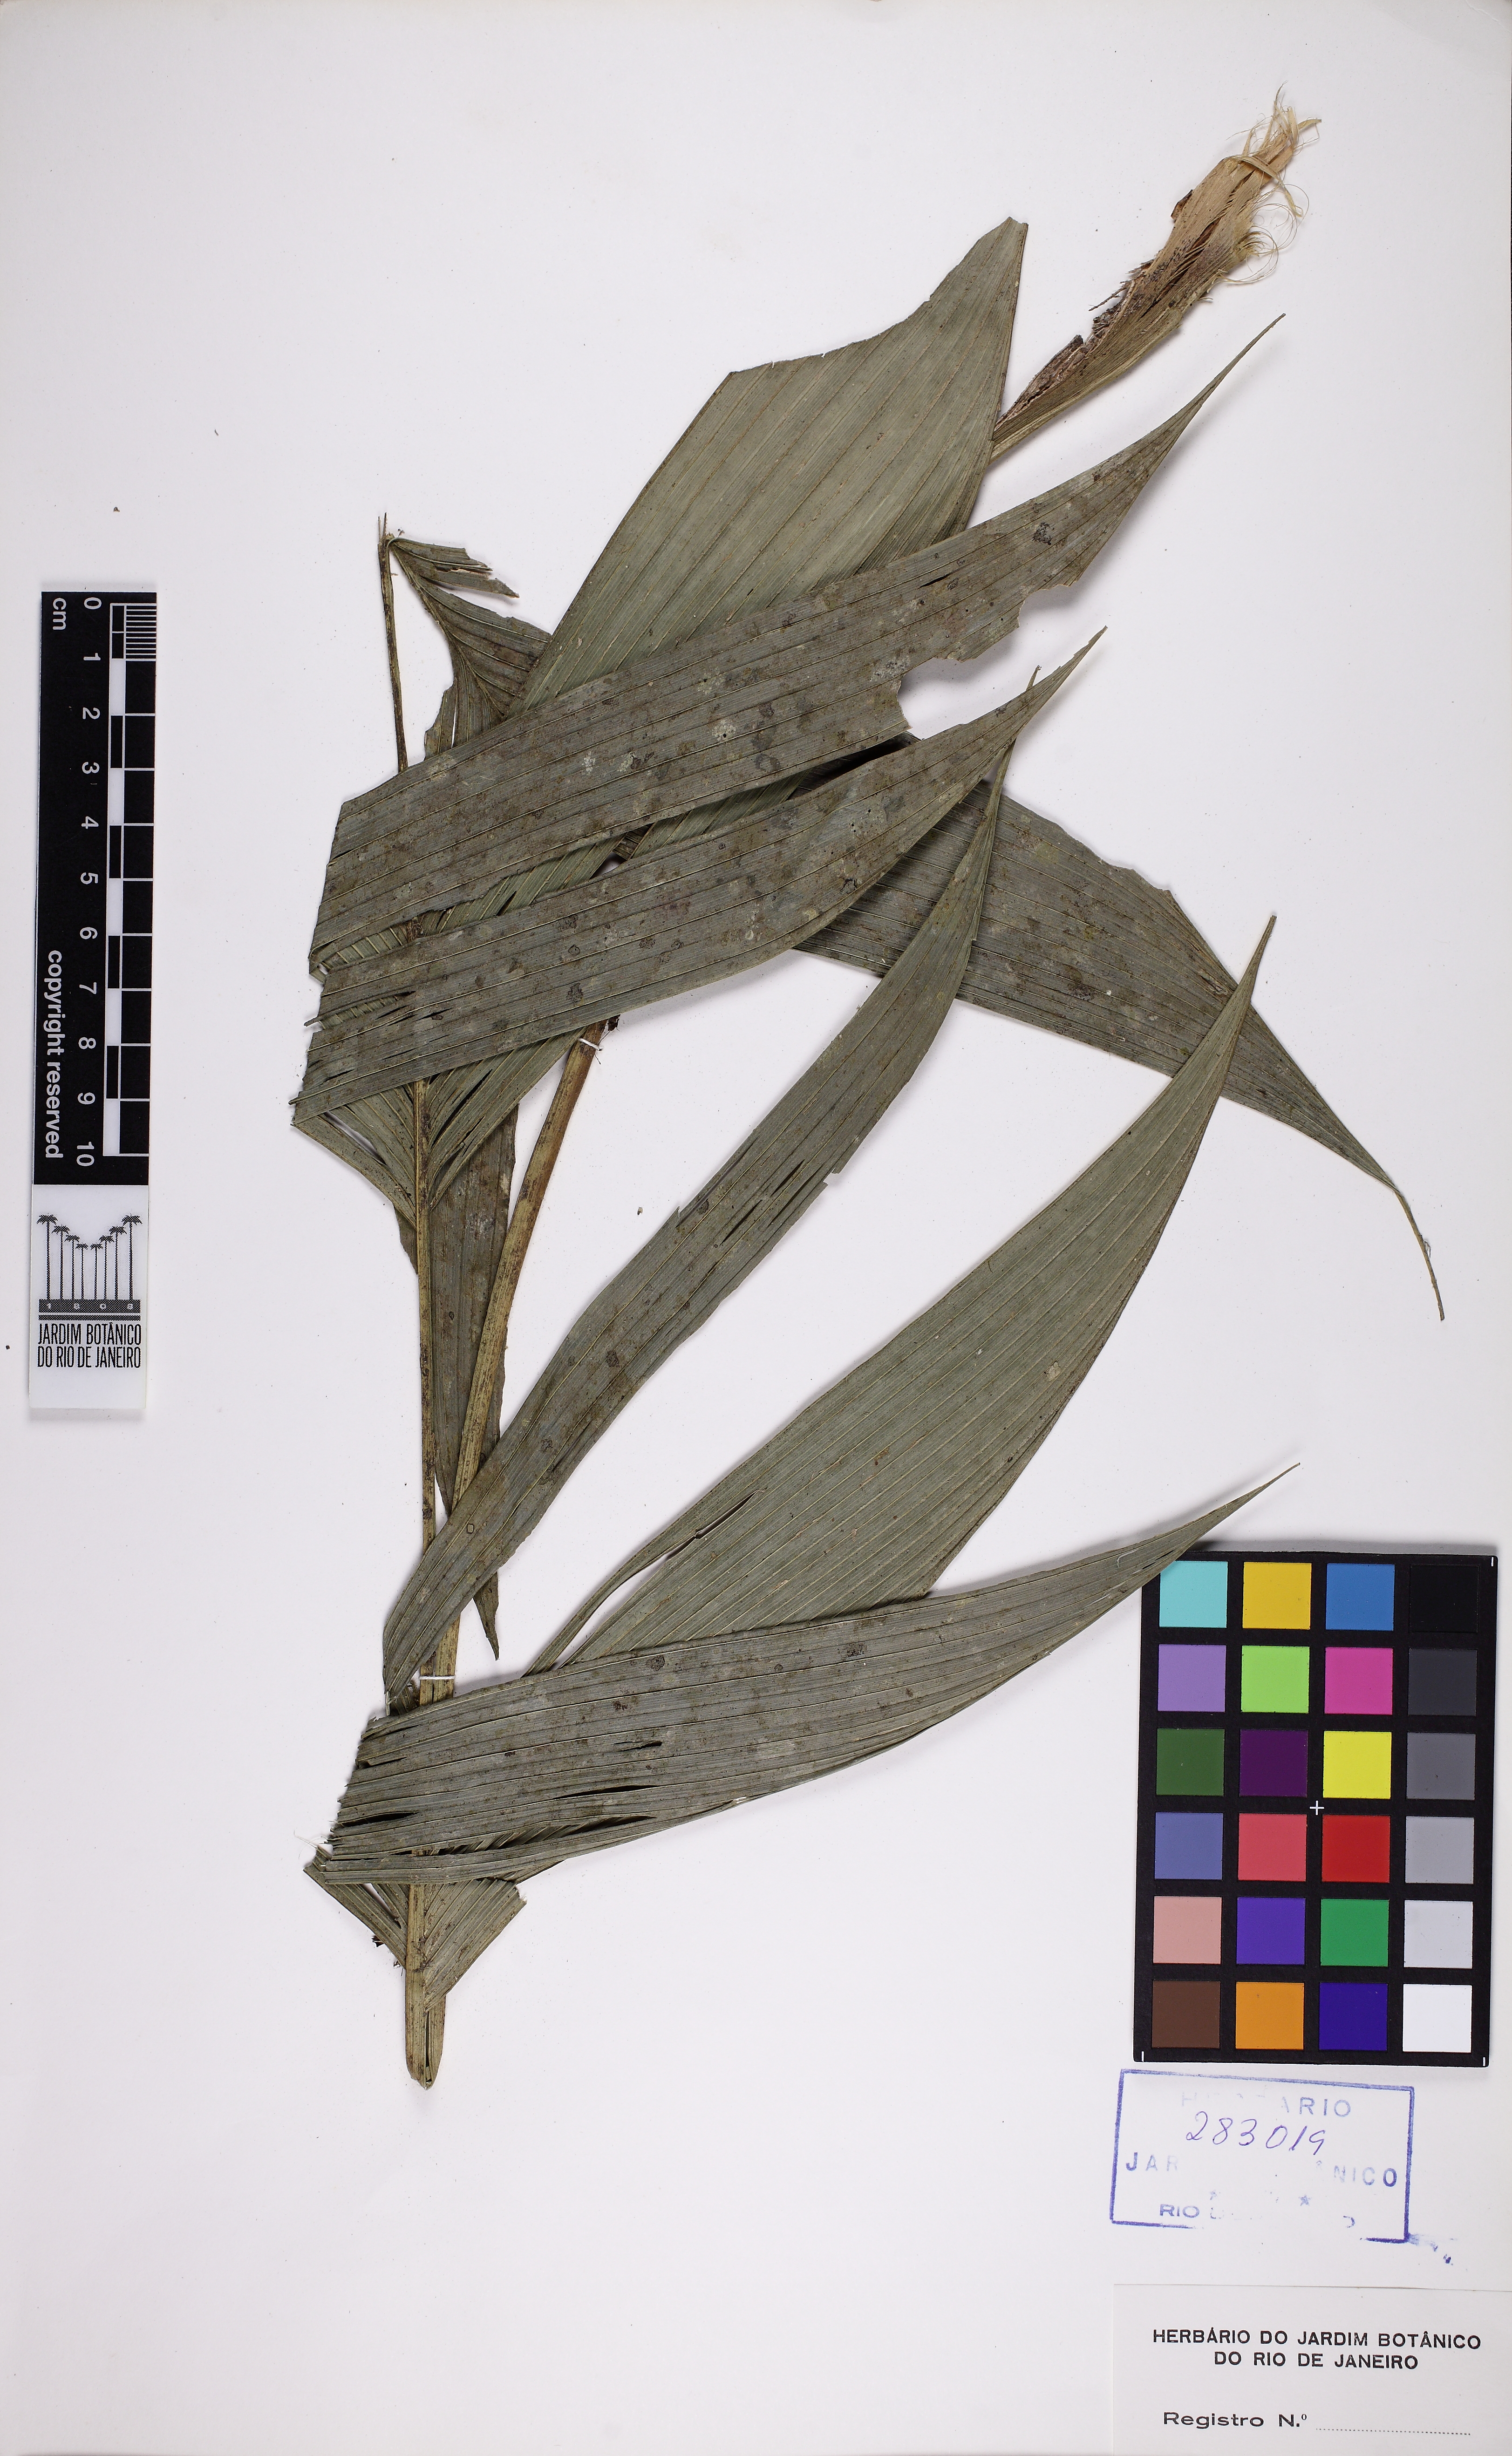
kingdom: Plantae
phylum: Tracheophyta
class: Liliopsida
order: Arecales
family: Arecaceae
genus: Geonoma
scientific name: Geonoma pohliana
